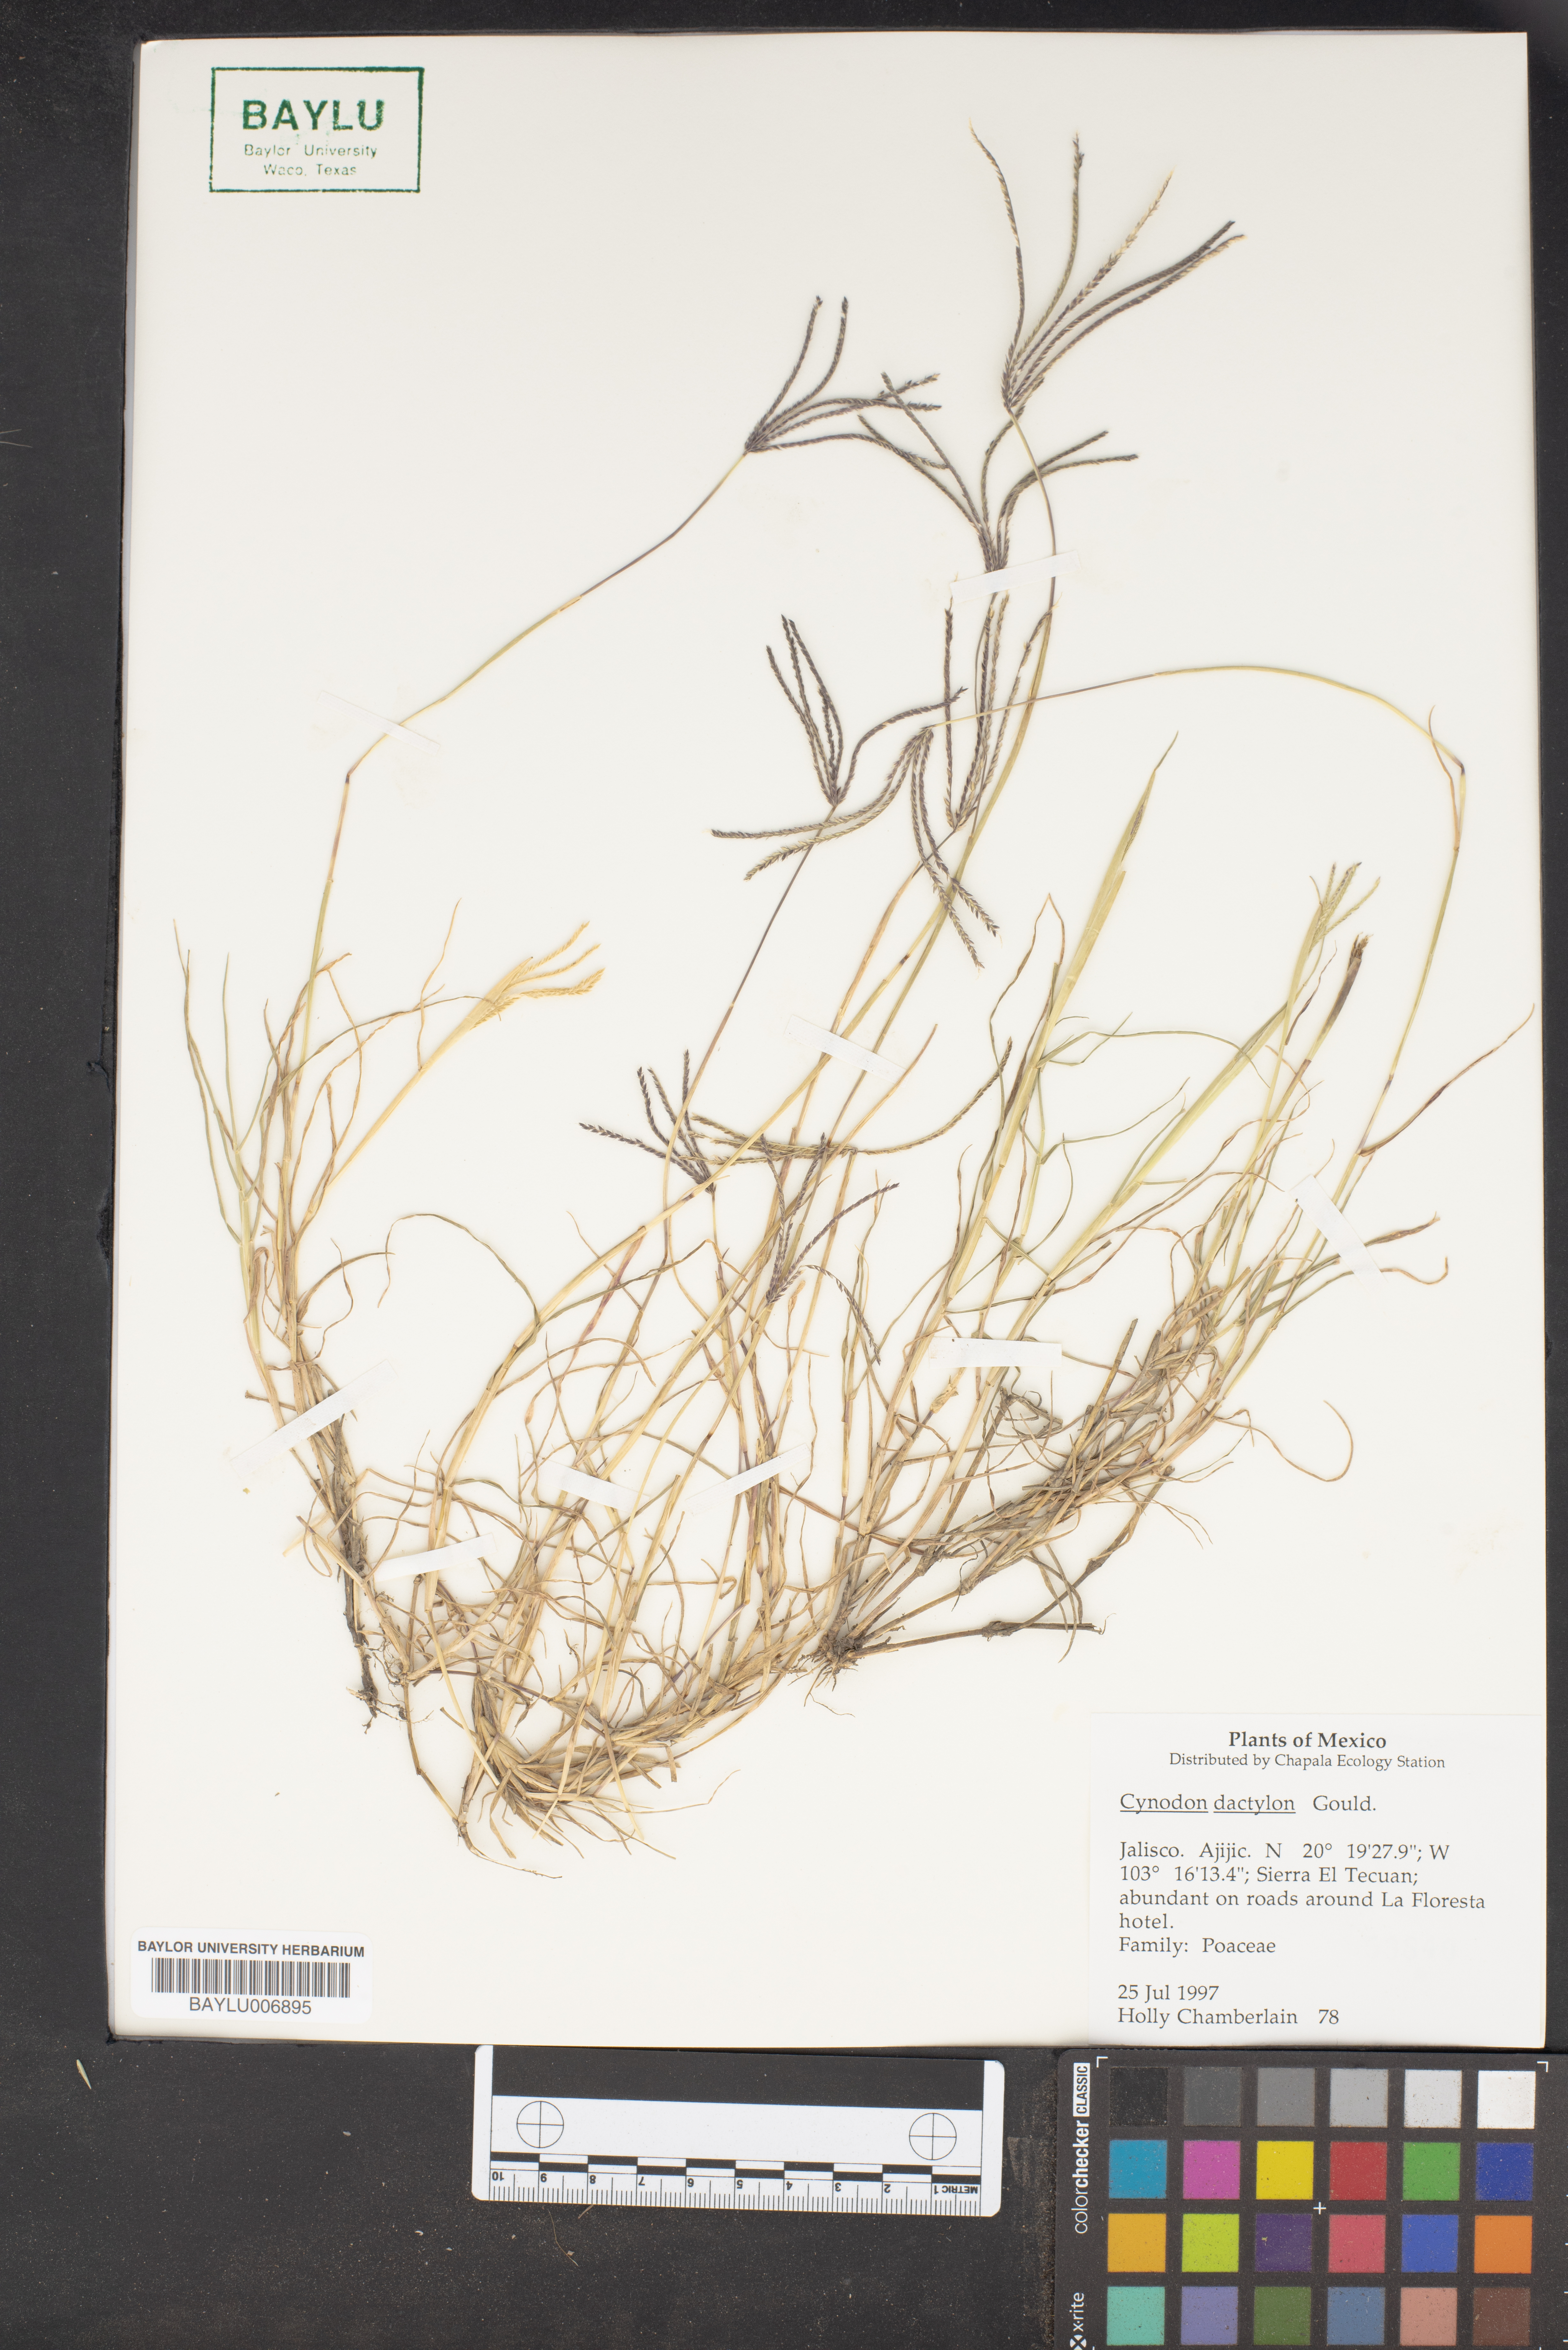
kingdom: Plantae
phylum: Tracheophyta
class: Liliopsida
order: Poales
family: Poaceae
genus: Cynodon
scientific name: Cynodon dactylon
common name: Bermuda grass
